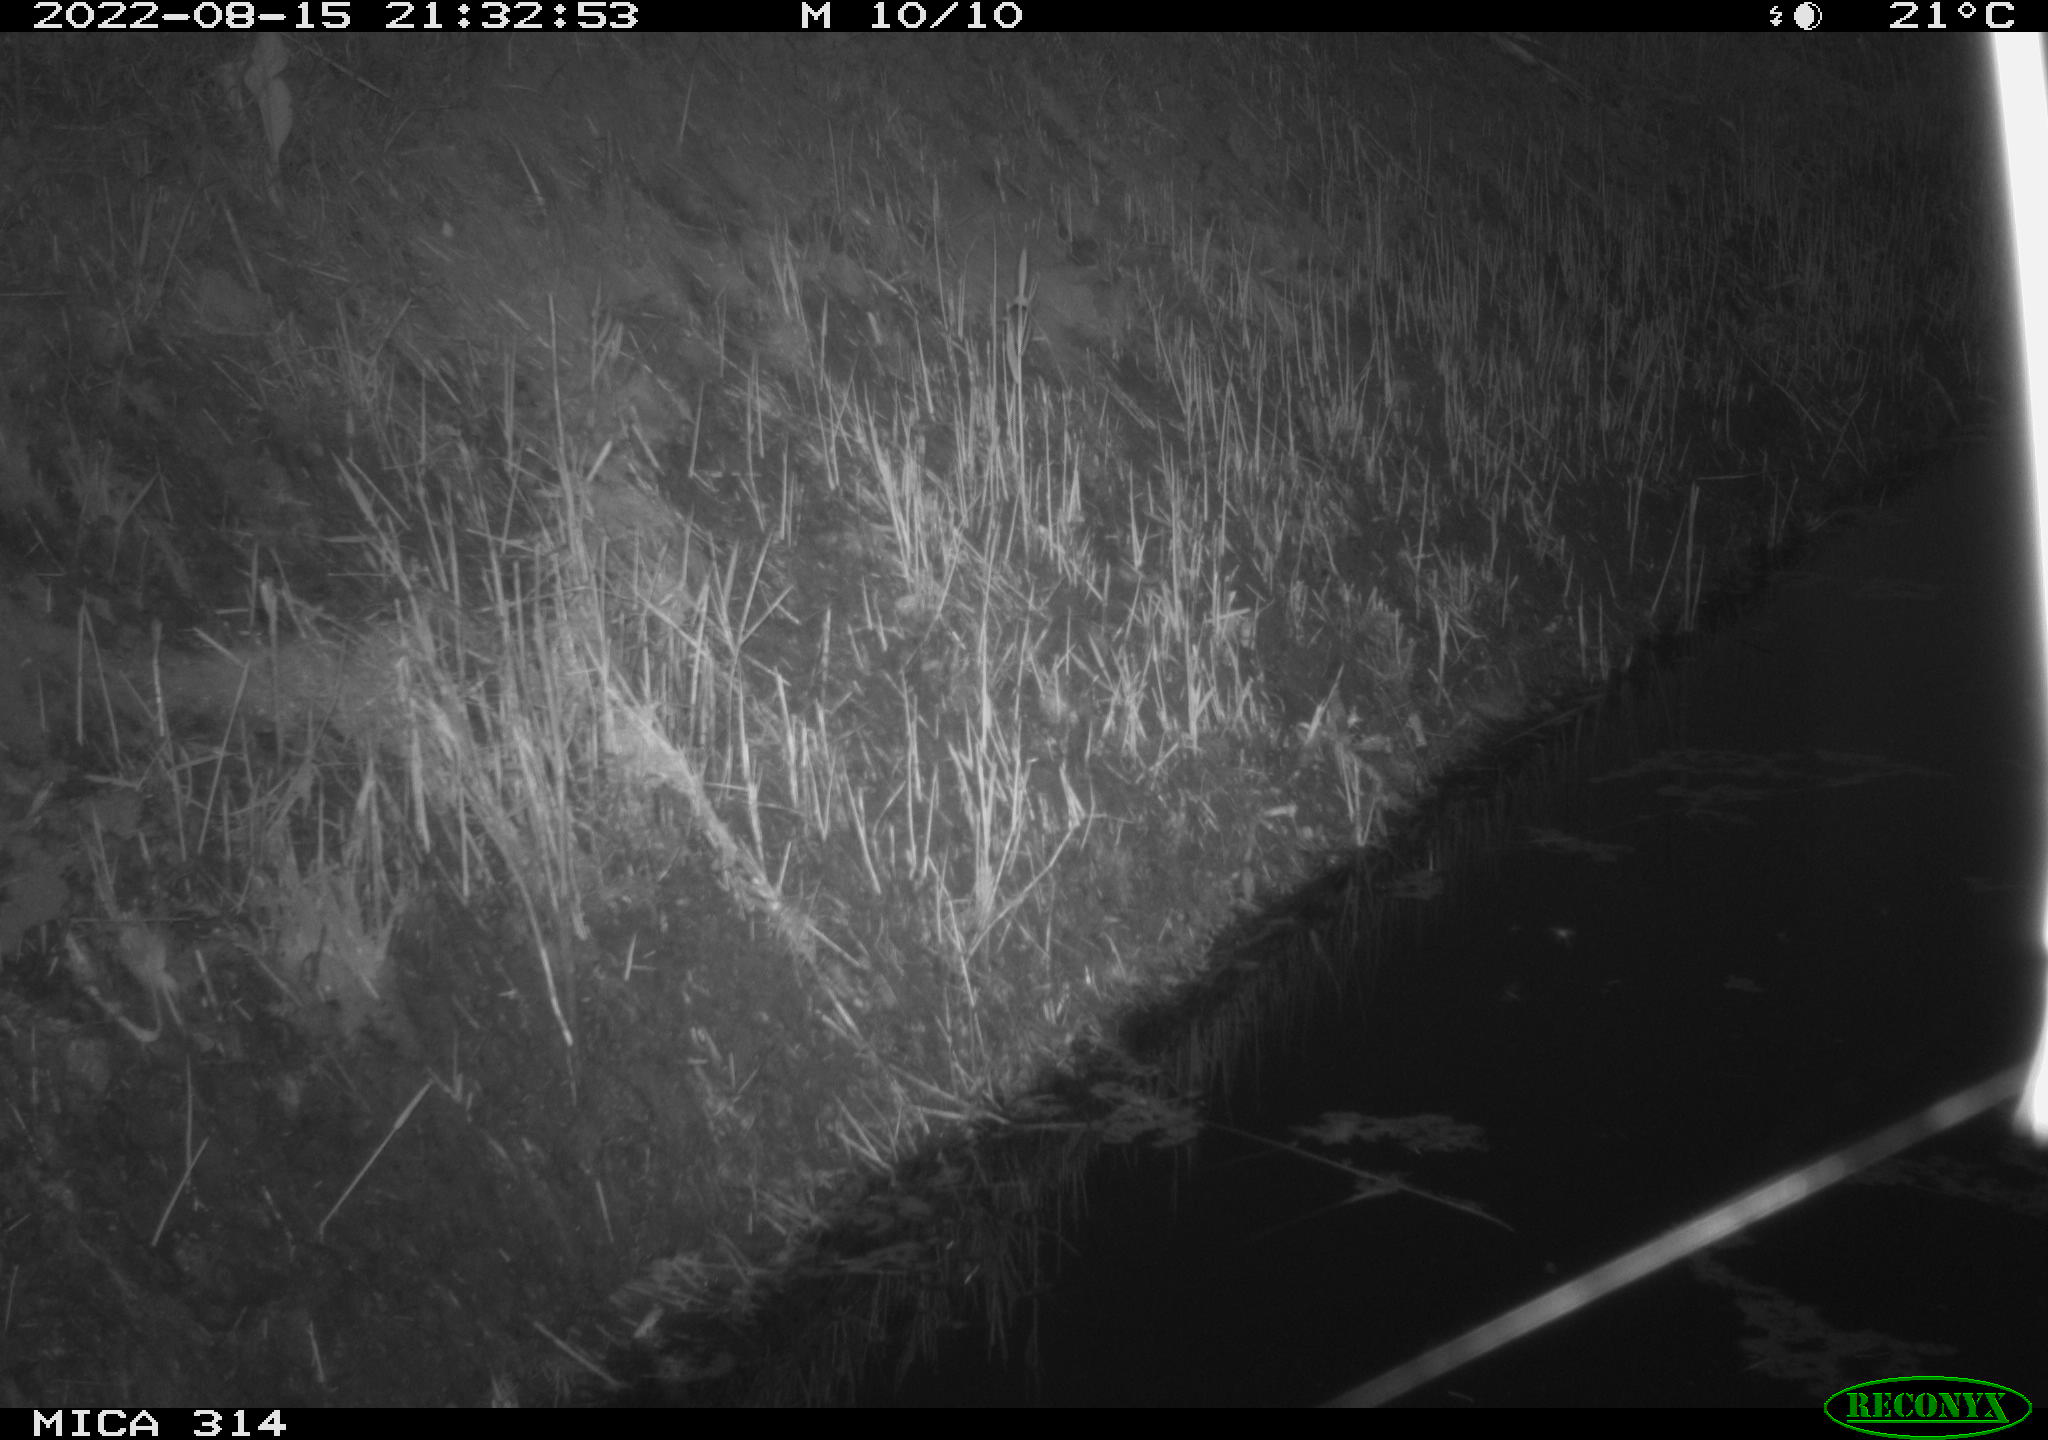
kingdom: Animalia
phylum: Chordata
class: Mammalia
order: Rodentia
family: Muridae
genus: Rattus
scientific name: Rattus norvegicus
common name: Brown rat
